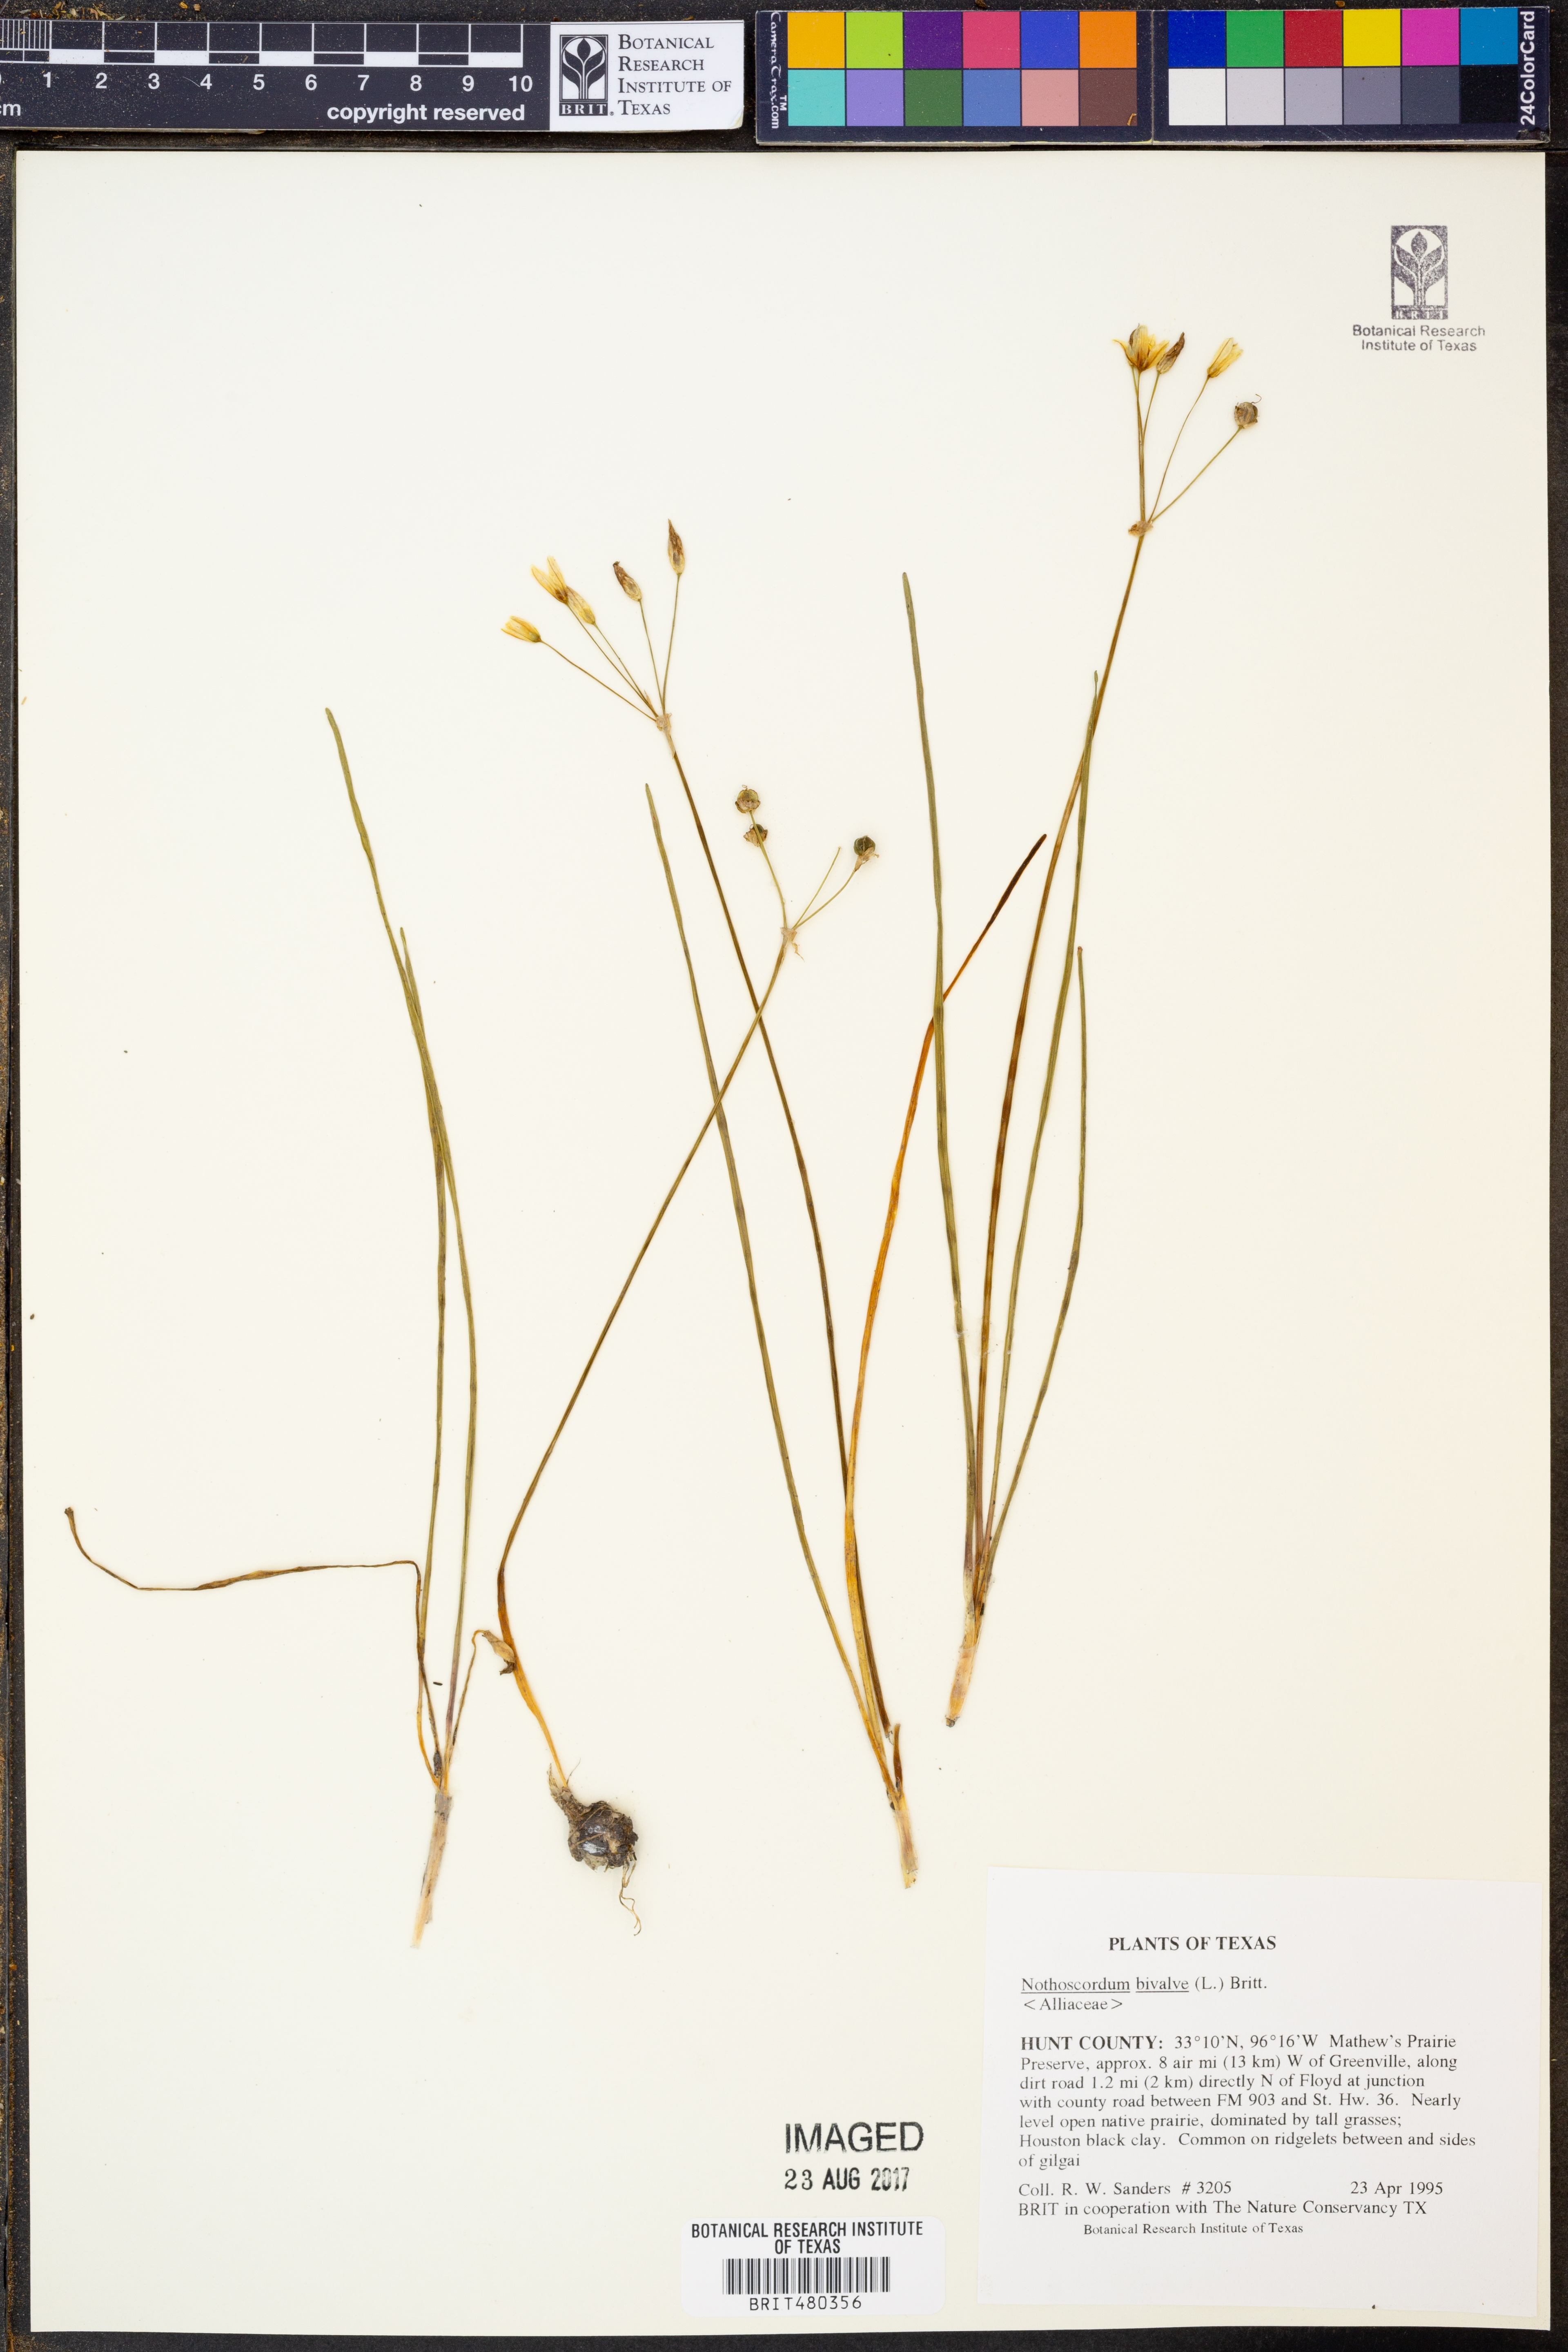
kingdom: Plantae
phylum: Tracheophyta
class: Liliopsida
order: Asparagales
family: Amaryllidaceae
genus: Nothoscordum
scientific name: Nothoscordum bivalve
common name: Crow-poison
